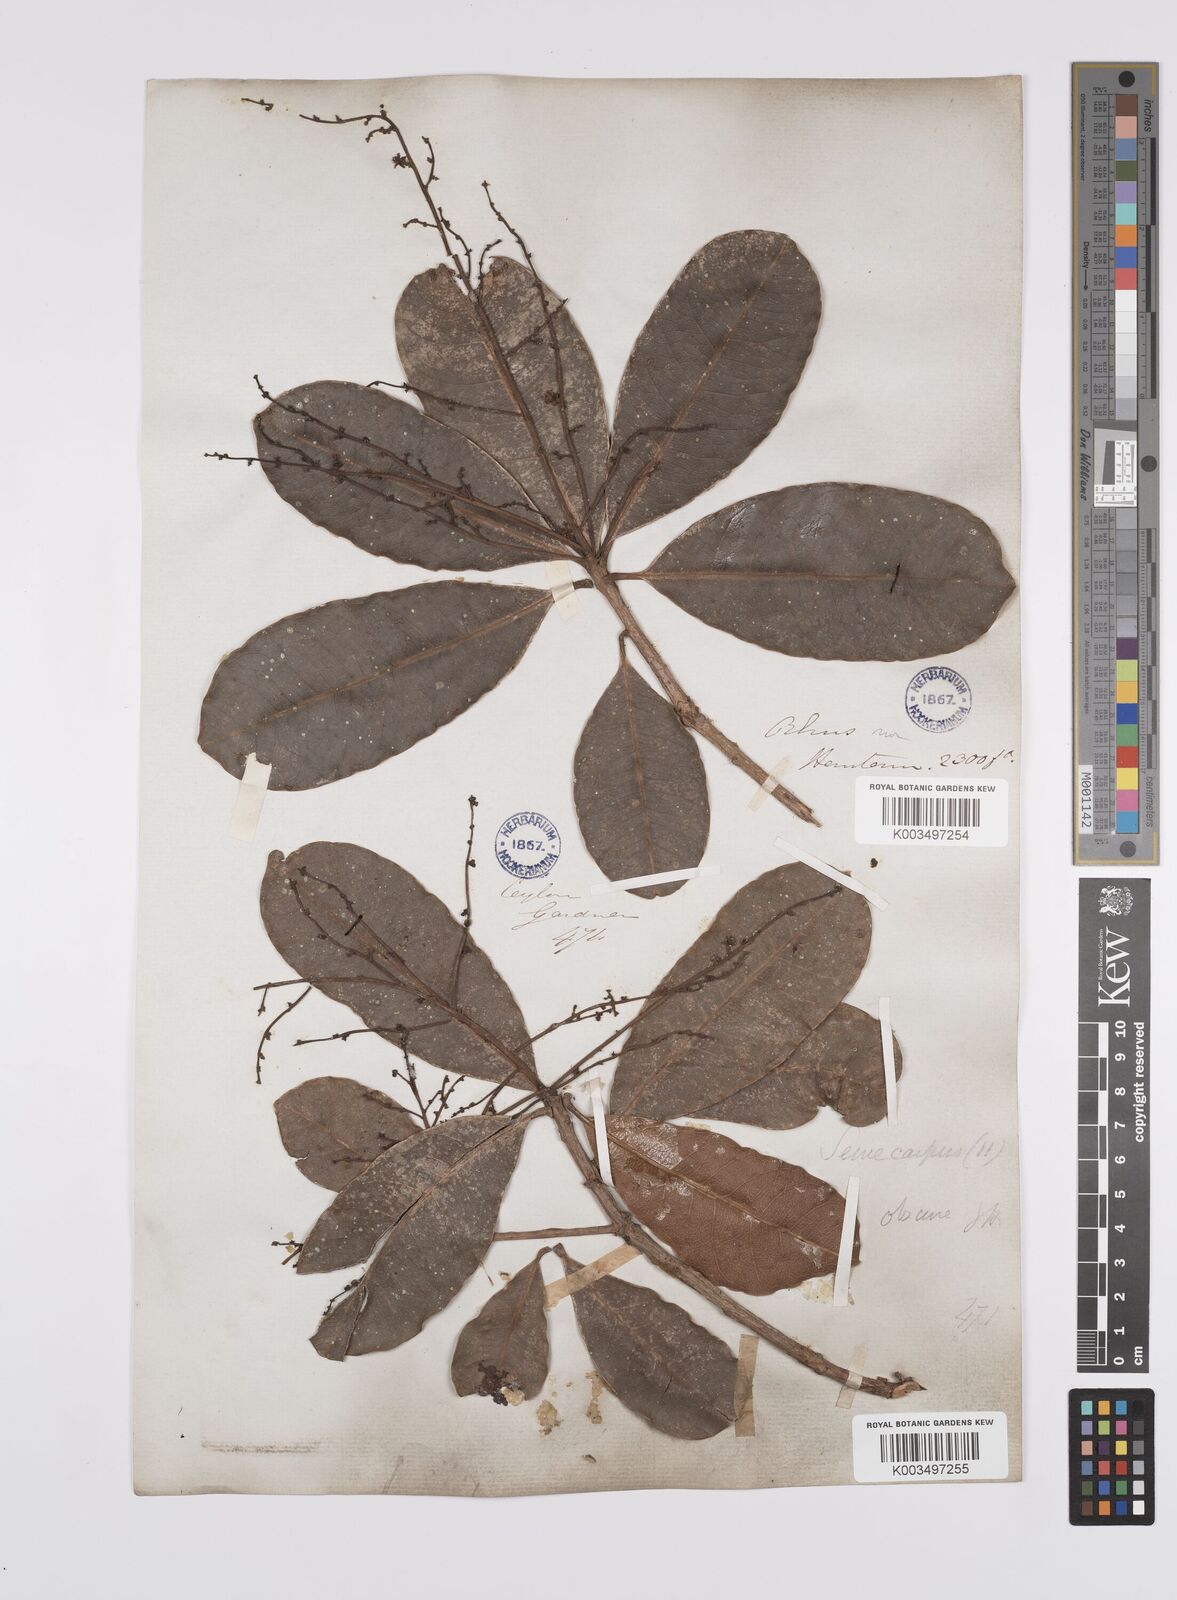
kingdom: Plantae
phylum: Tracheophyta
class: Magnoliopsida
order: Sapindales
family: Anacardiaceae
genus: Semecarpus
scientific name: Semecarpus walkeri
